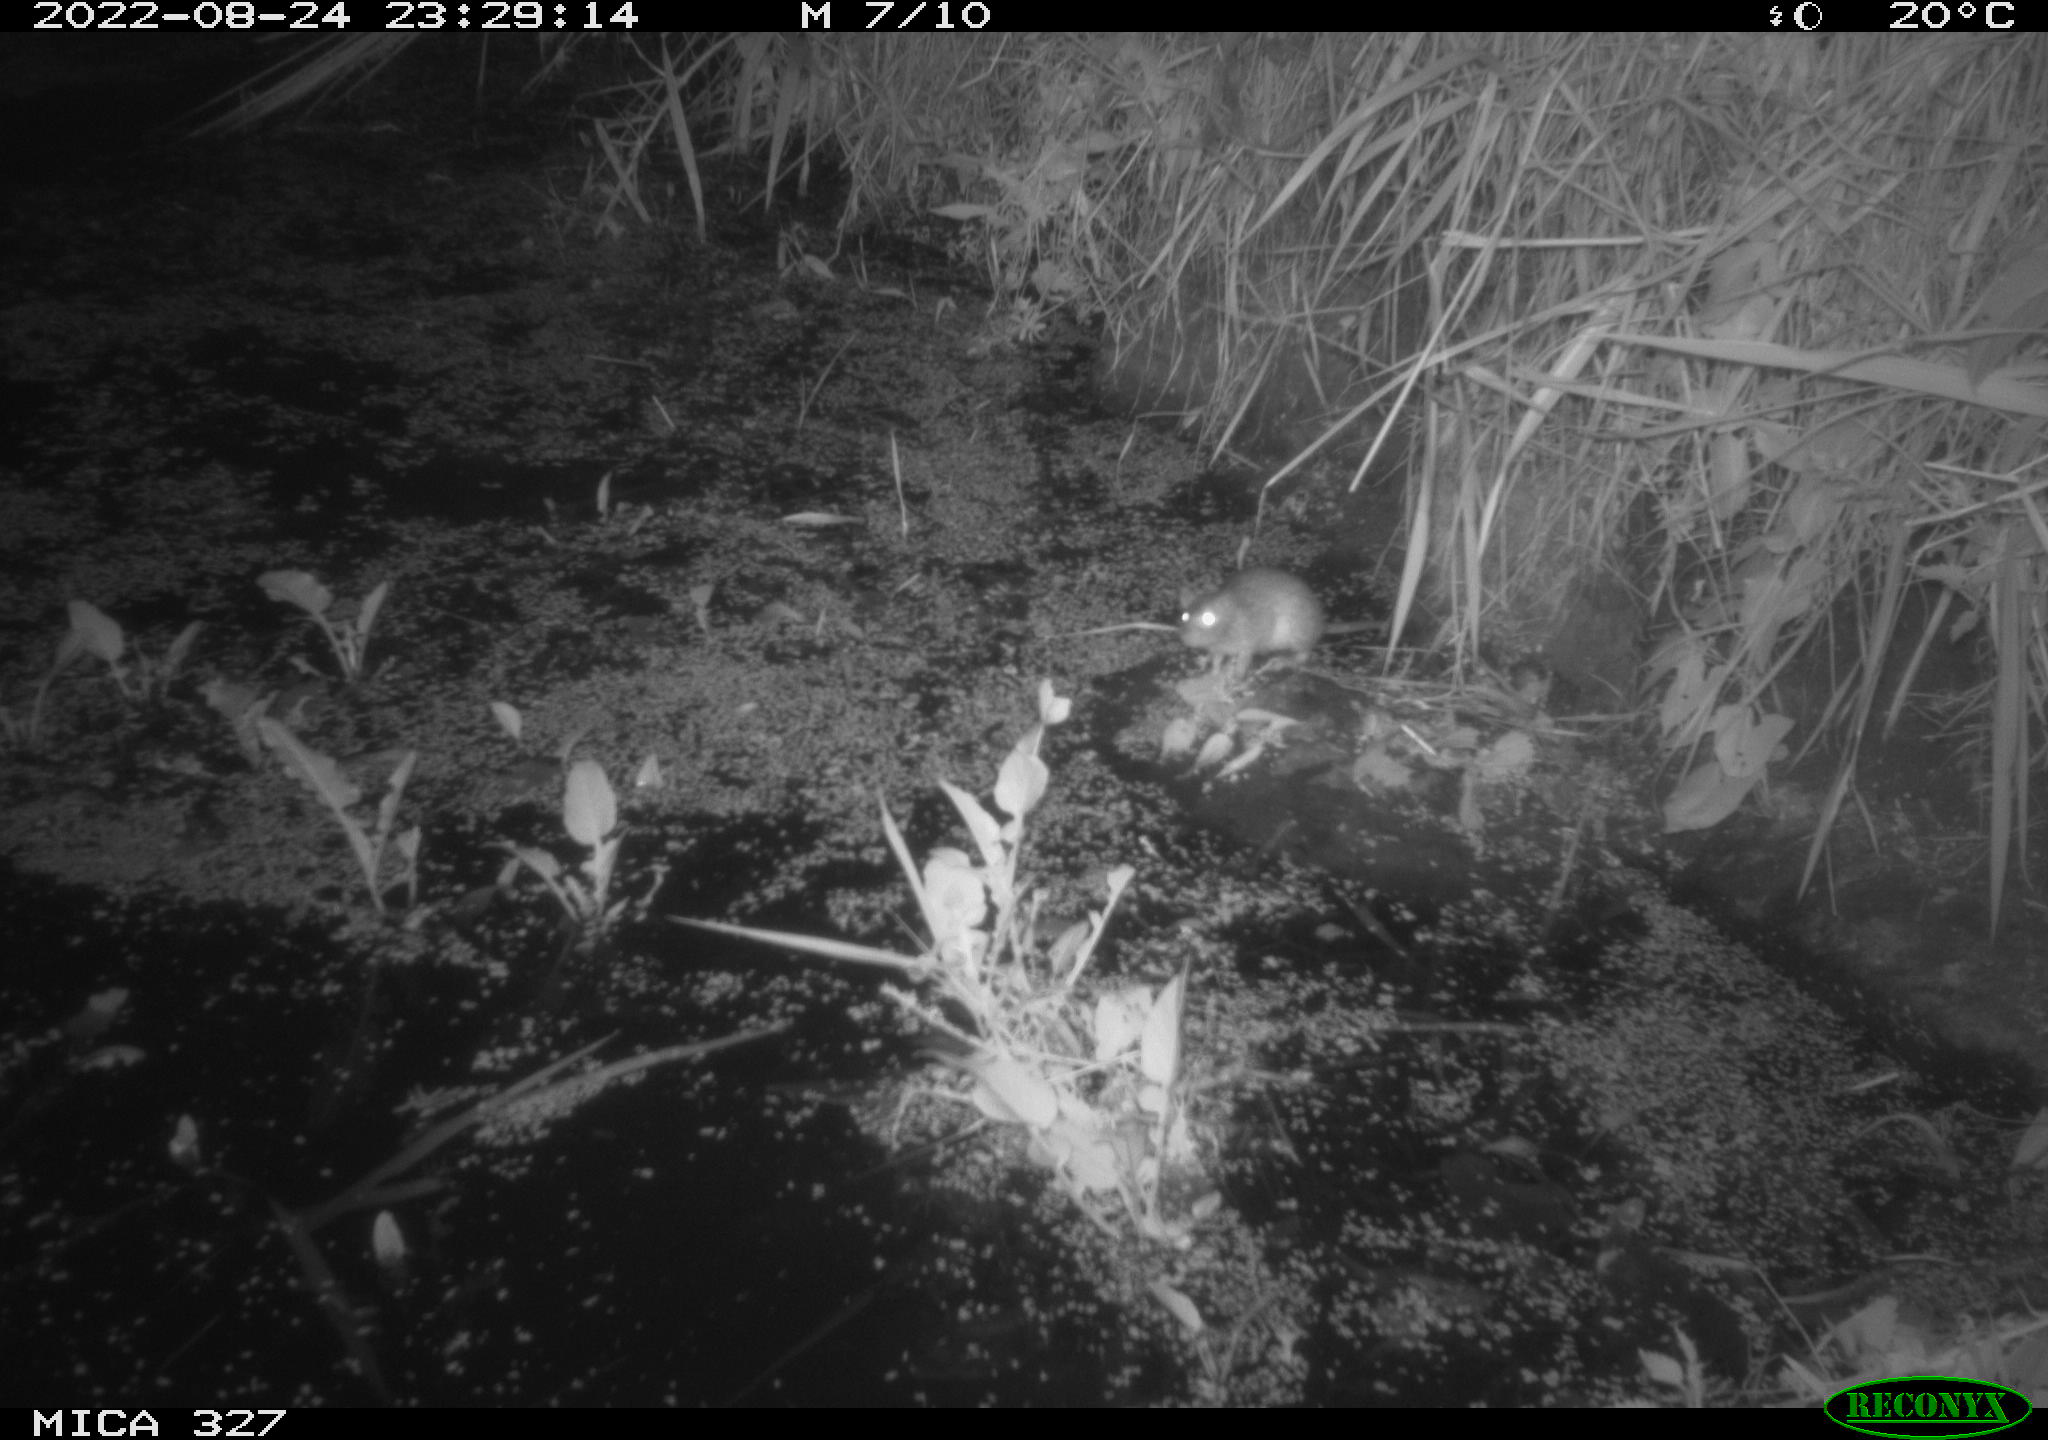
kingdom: Animalia
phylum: Chordata
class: Mammalia
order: Rodentia
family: Muridae
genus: Rattus
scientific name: Rattus norvegicus
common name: Brown rat
